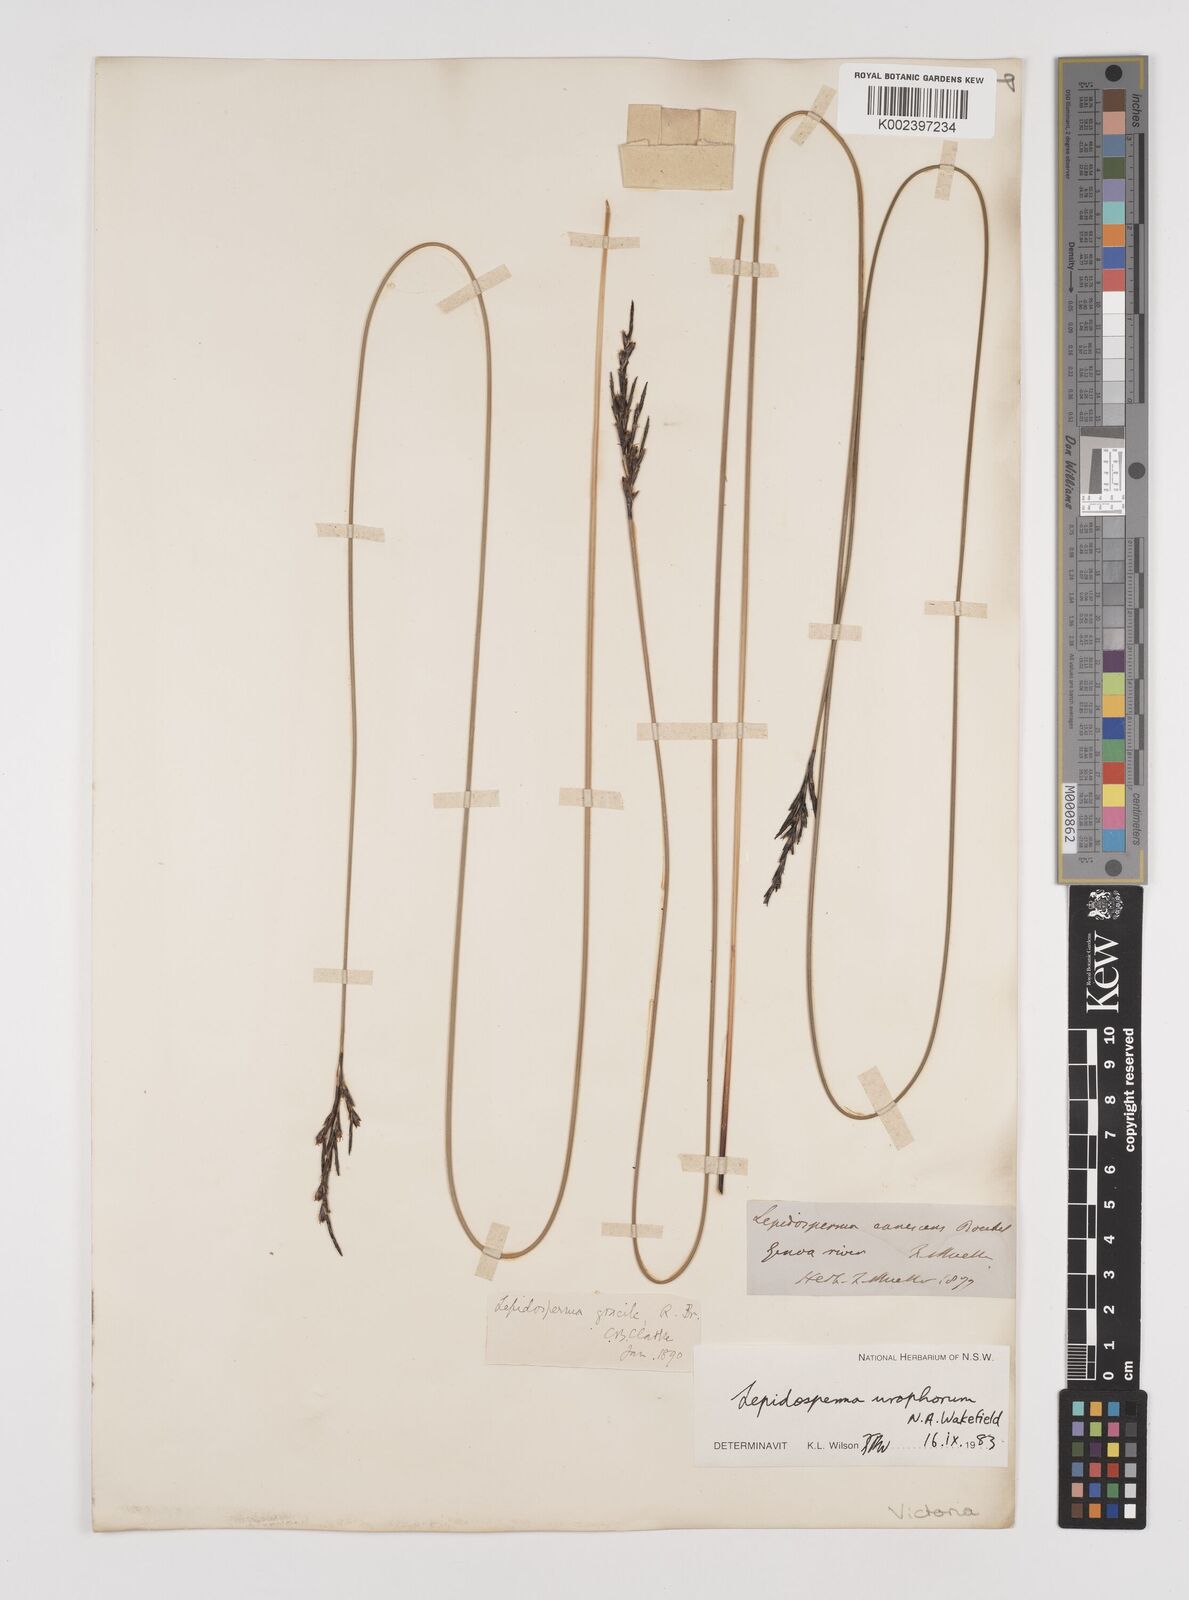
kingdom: Plantae
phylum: Tracheophyta
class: Liliopsida
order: Poales
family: Cyperaceae
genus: Lepidosperma
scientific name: Lepidosperma urophorum
